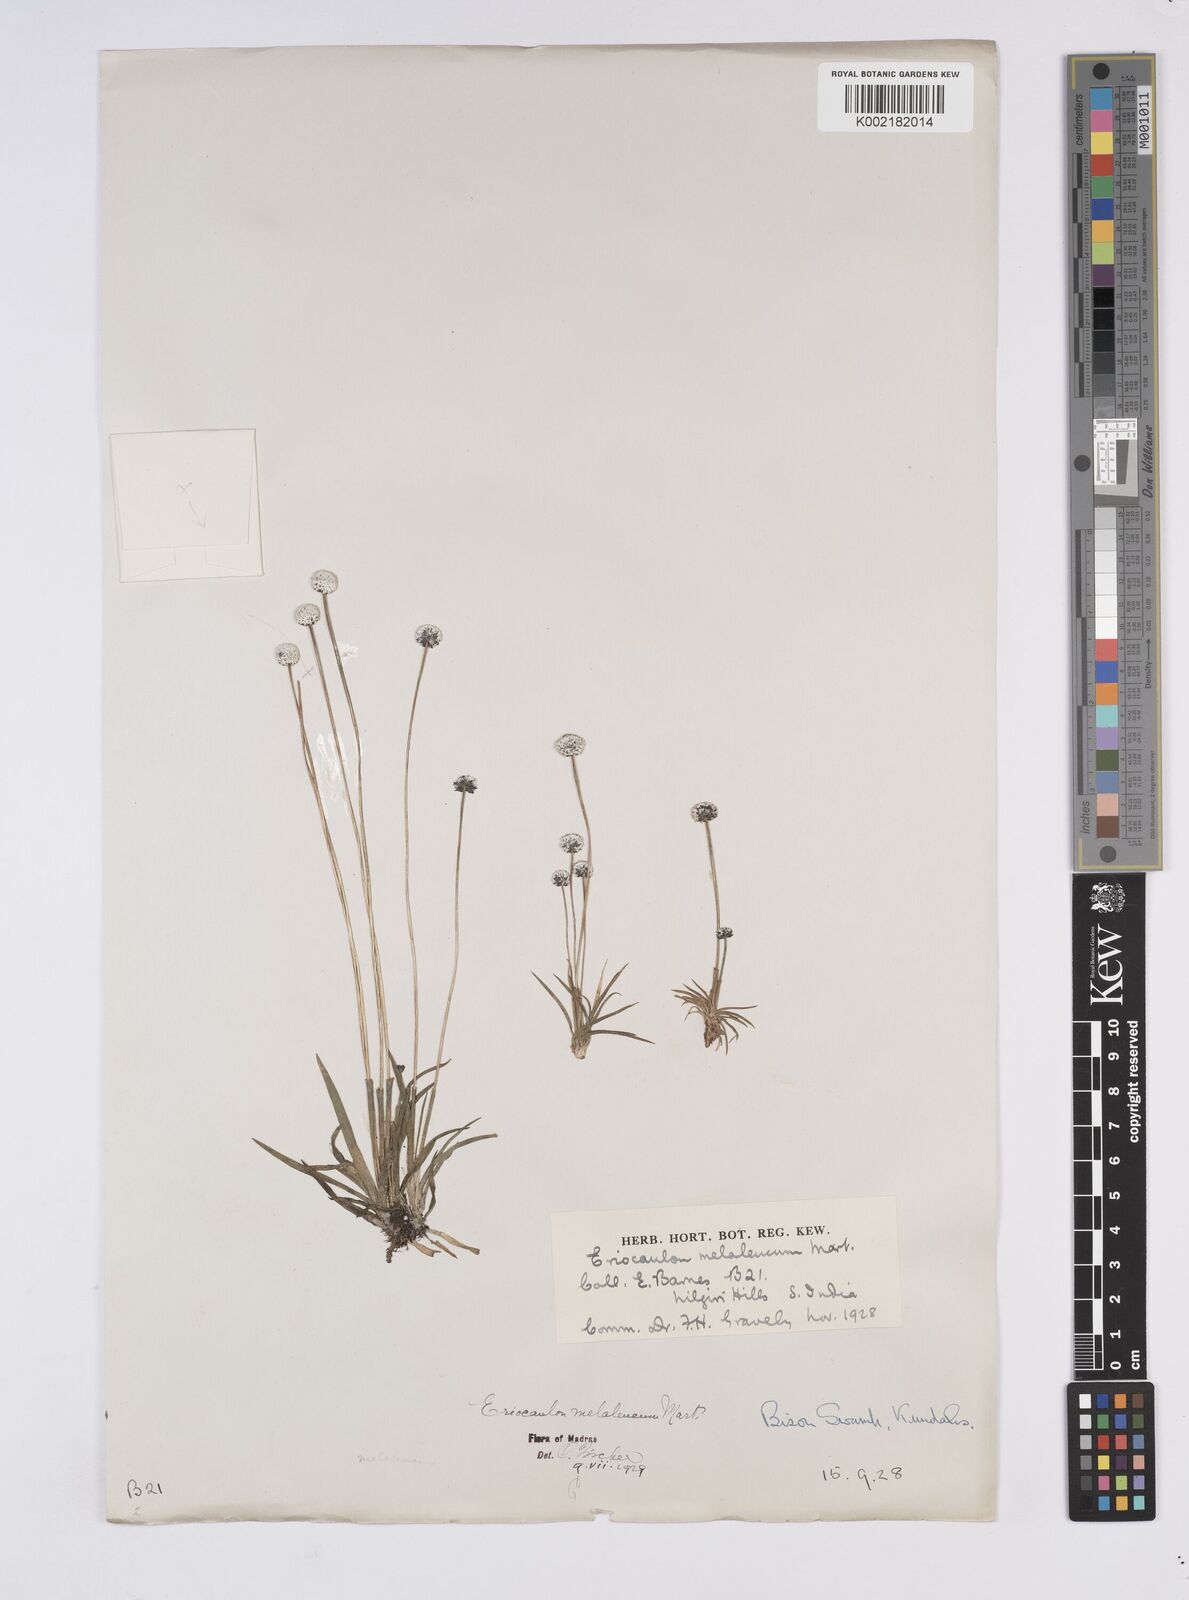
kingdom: Plantae
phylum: Tracheophyta
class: Liliopsida
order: Poales
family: Eriocaulaceae
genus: Eriocaulon
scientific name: Eriocaulon leucomelas
